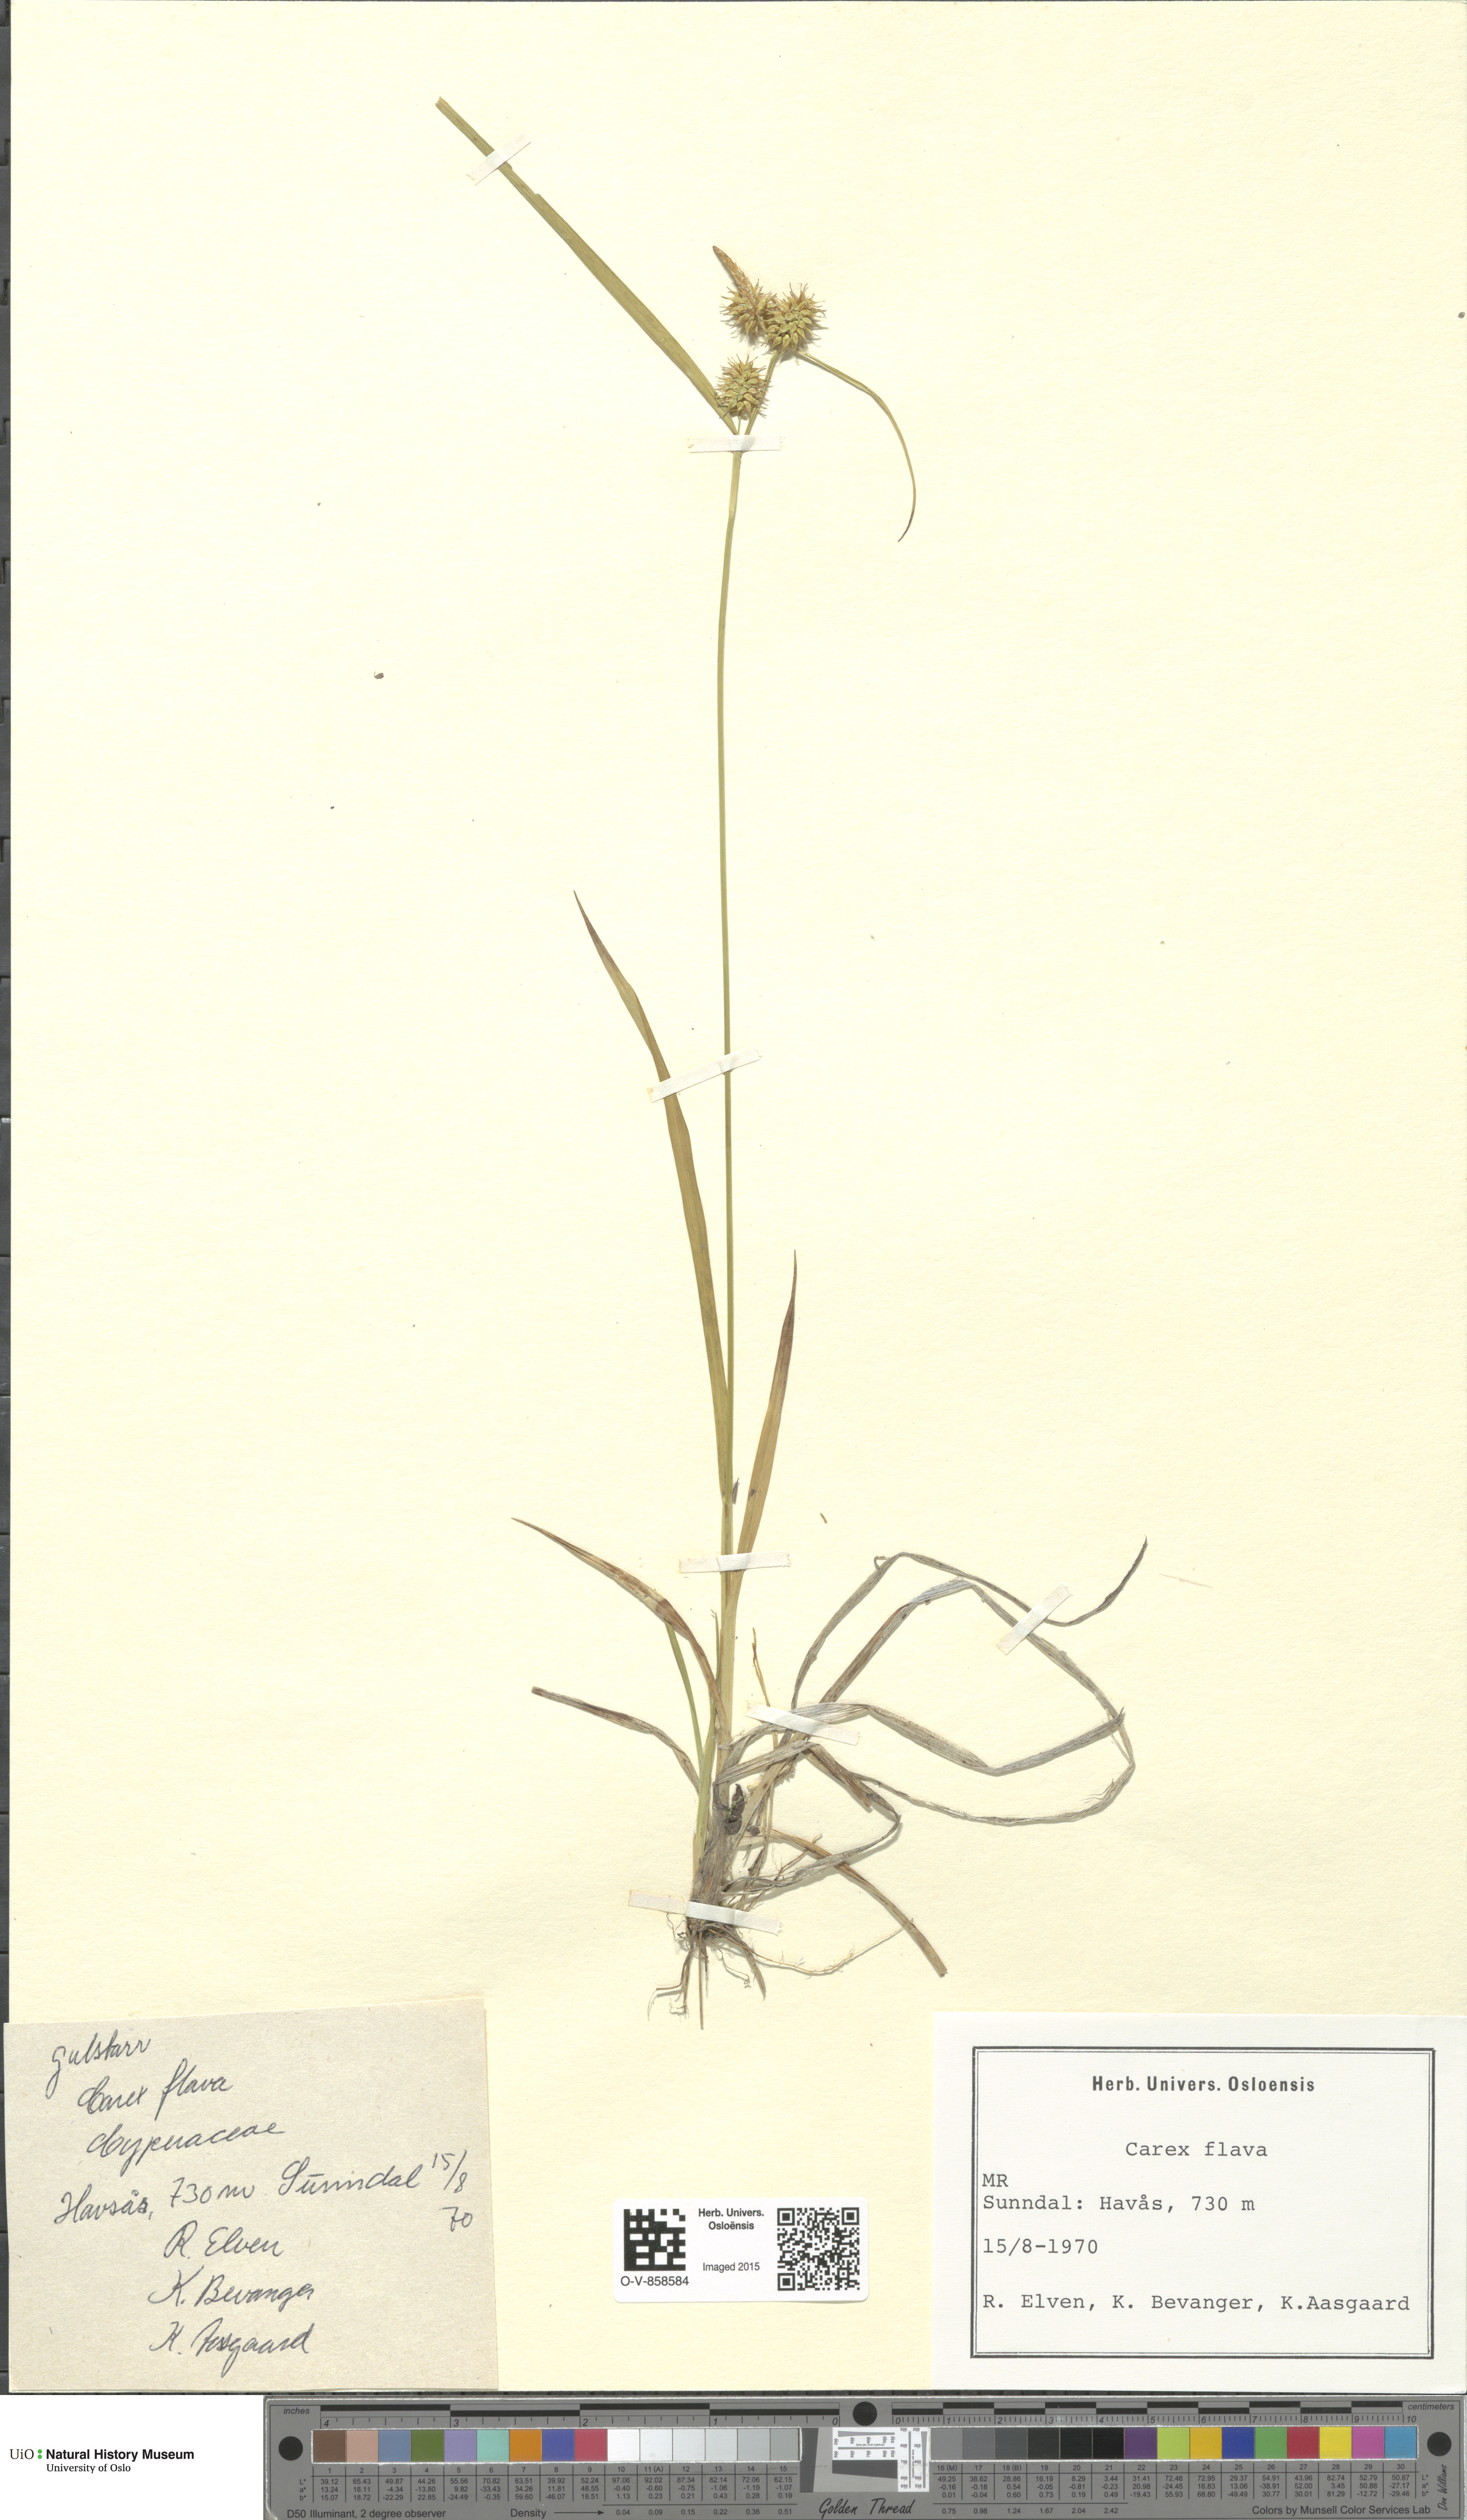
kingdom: Plantae
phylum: Tracheophyta
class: Liliopsida
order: Poales
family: Cyperaceae
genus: Carex
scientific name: Carex flava
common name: Large yellow-sedge
